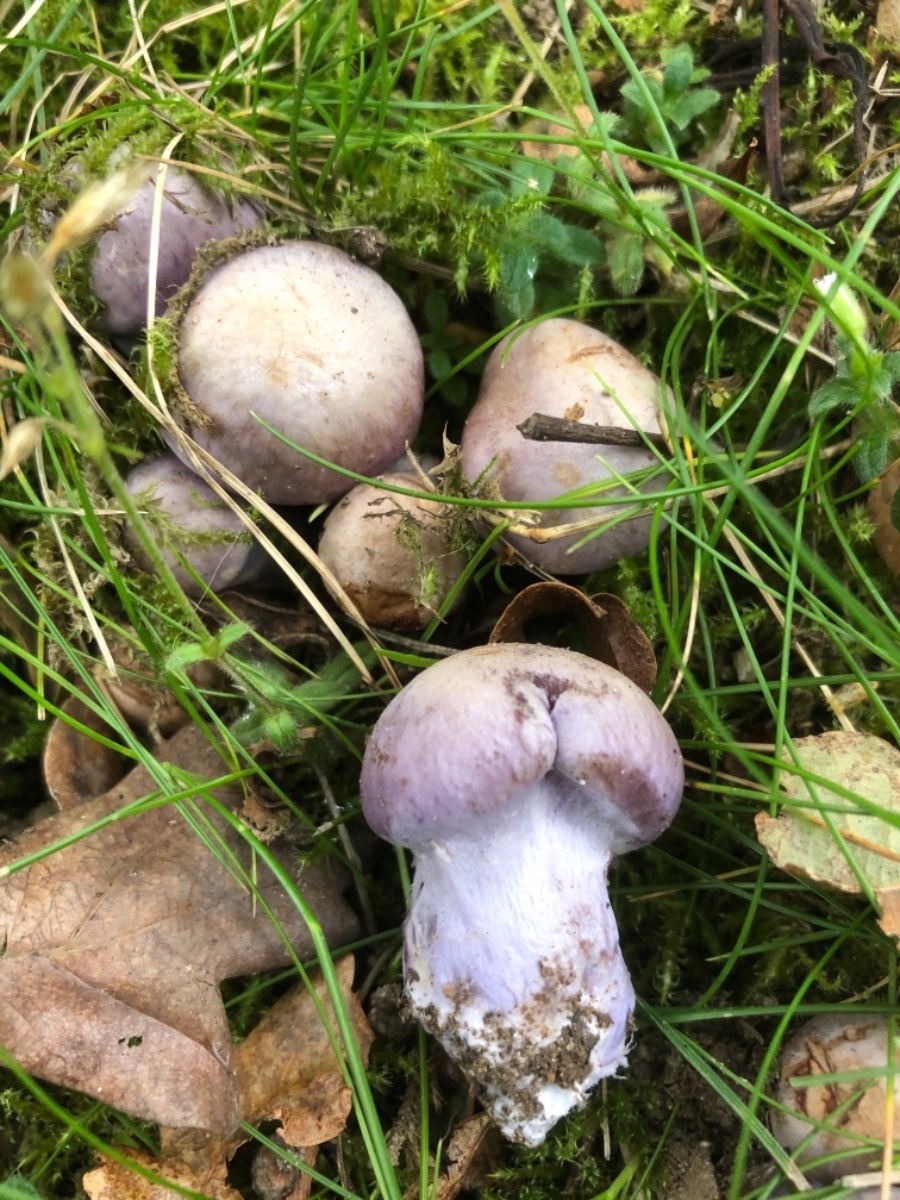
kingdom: Fungi
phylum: Basidiomycota
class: Agaricomycetes
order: Agaricales
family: Cortinariaceae
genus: Cortinarius
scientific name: Cortinarius largus
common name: violetrandet slørhat
